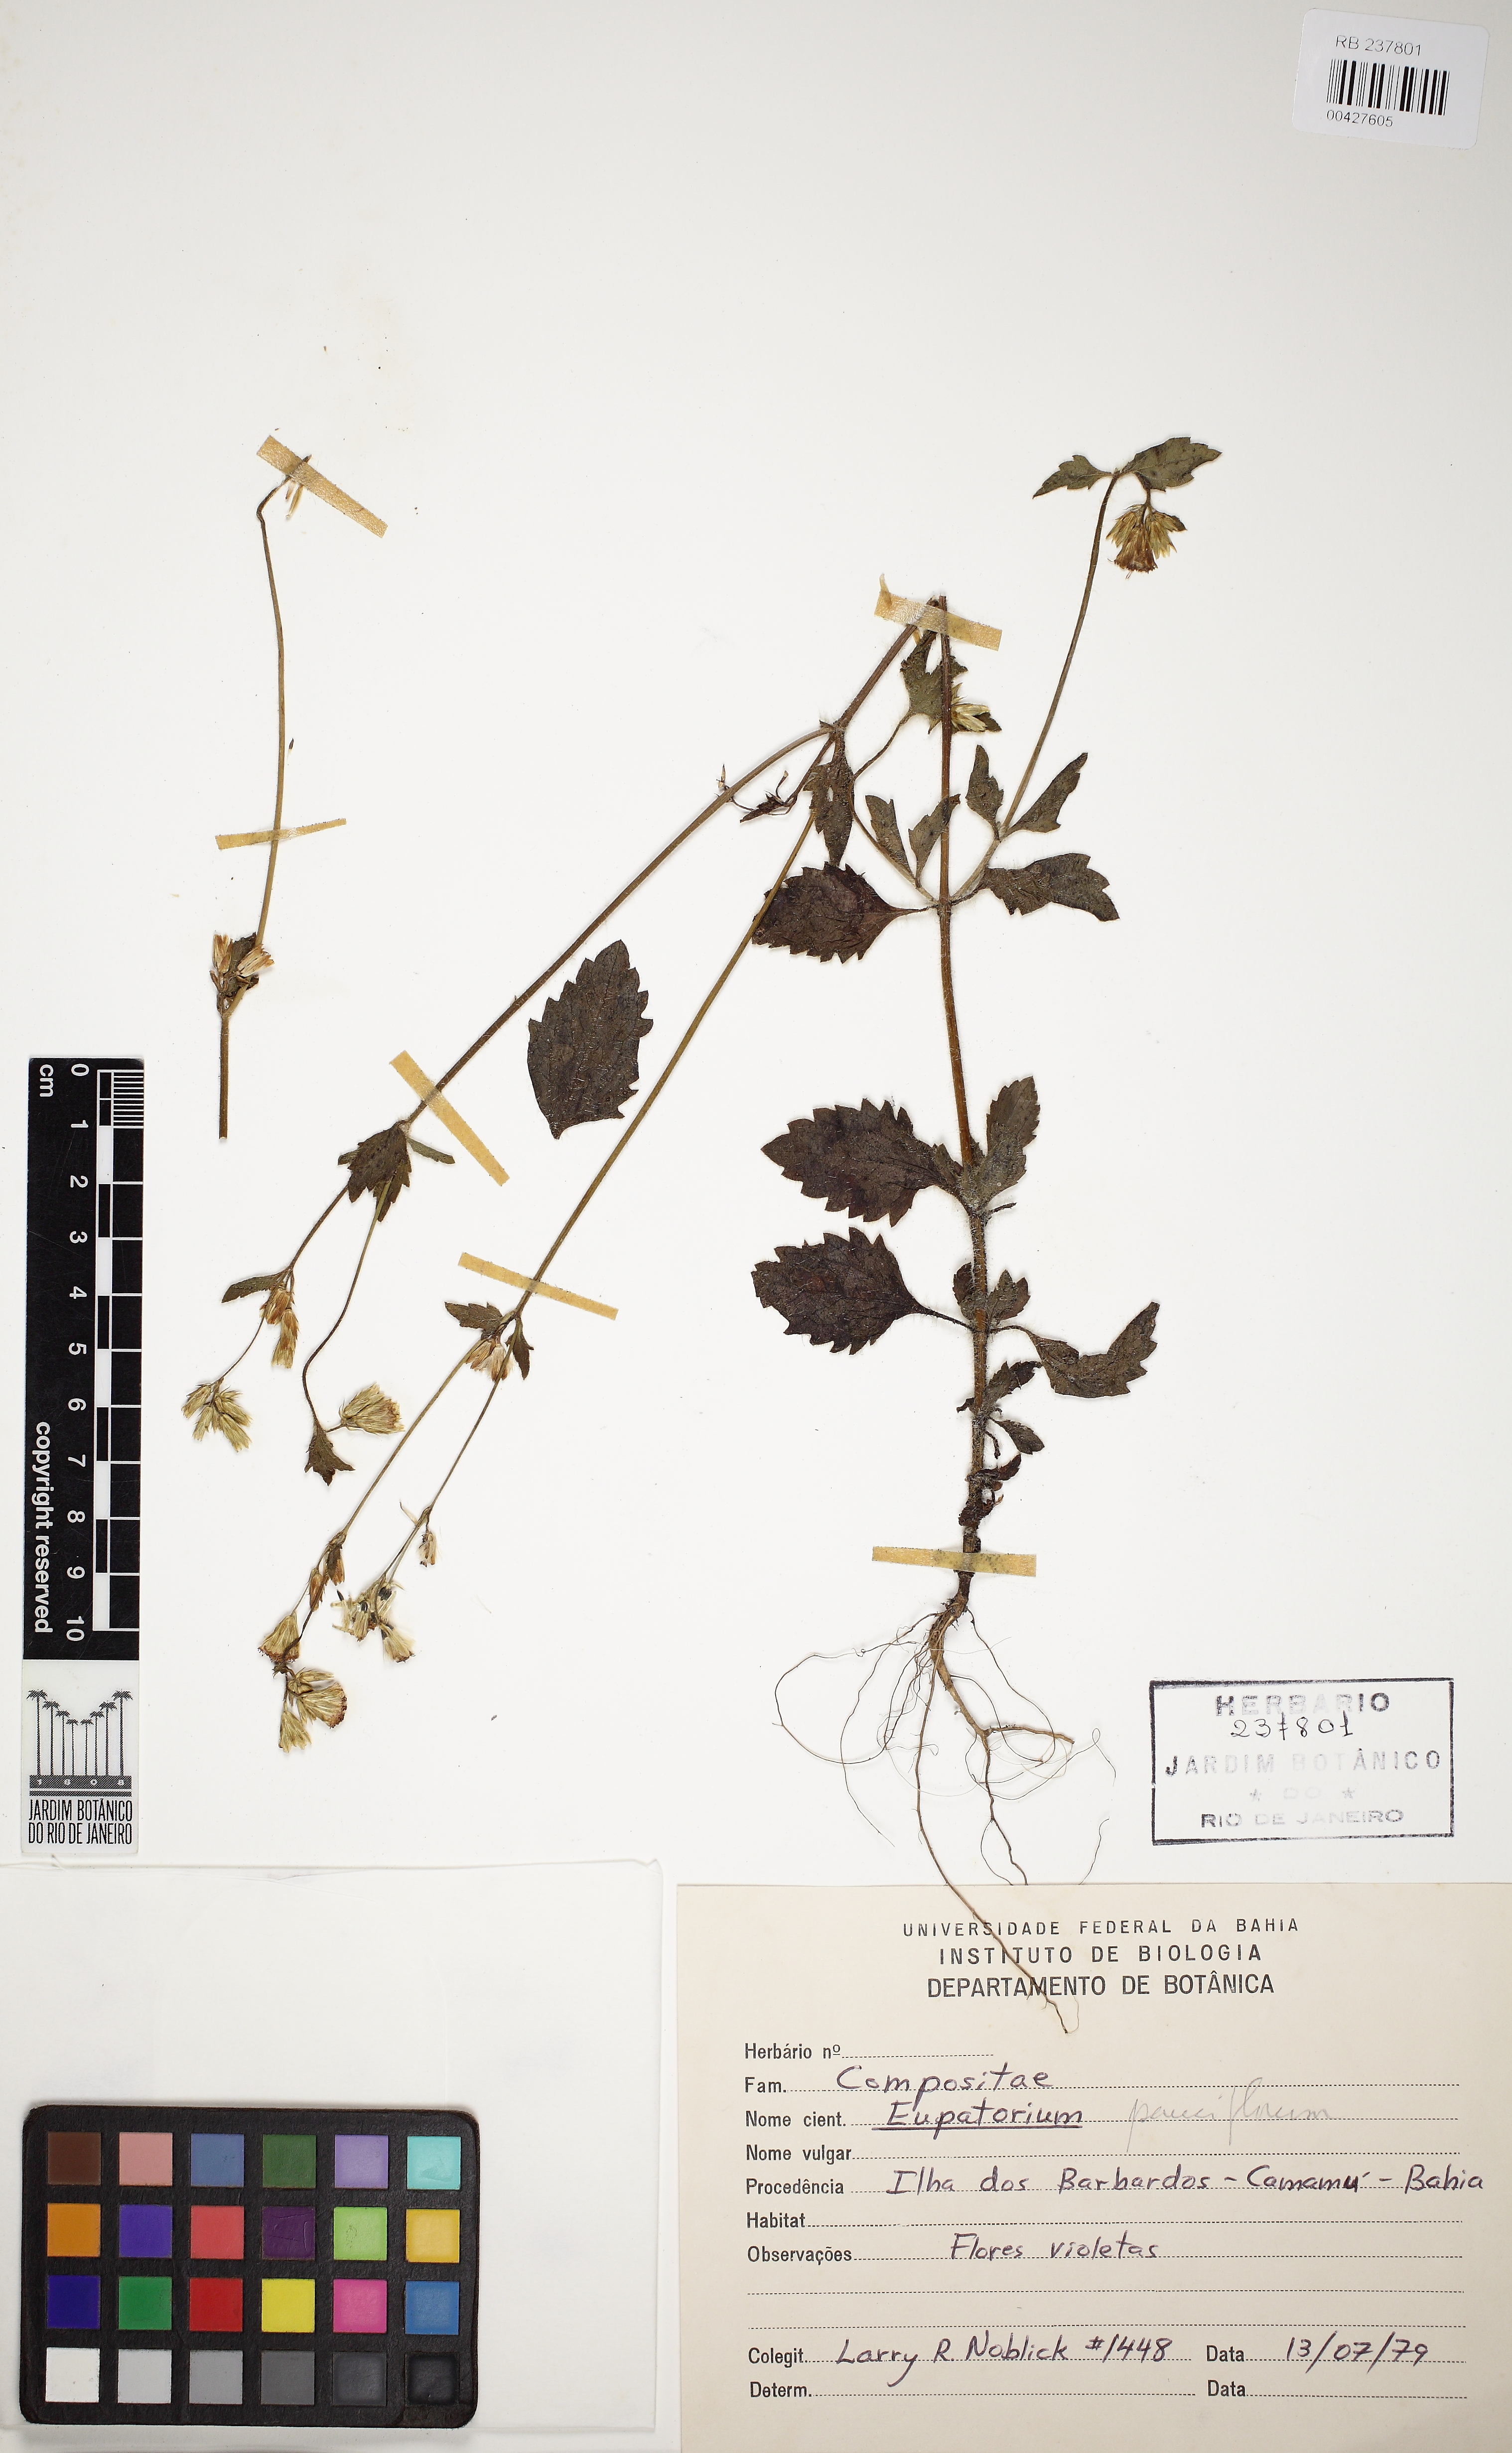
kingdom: Plantae
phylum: Tracheophyta
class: Magnoliopsida
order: Asterales
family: Asteraceae
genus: Praxelis
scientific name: Praxelis diffusa
